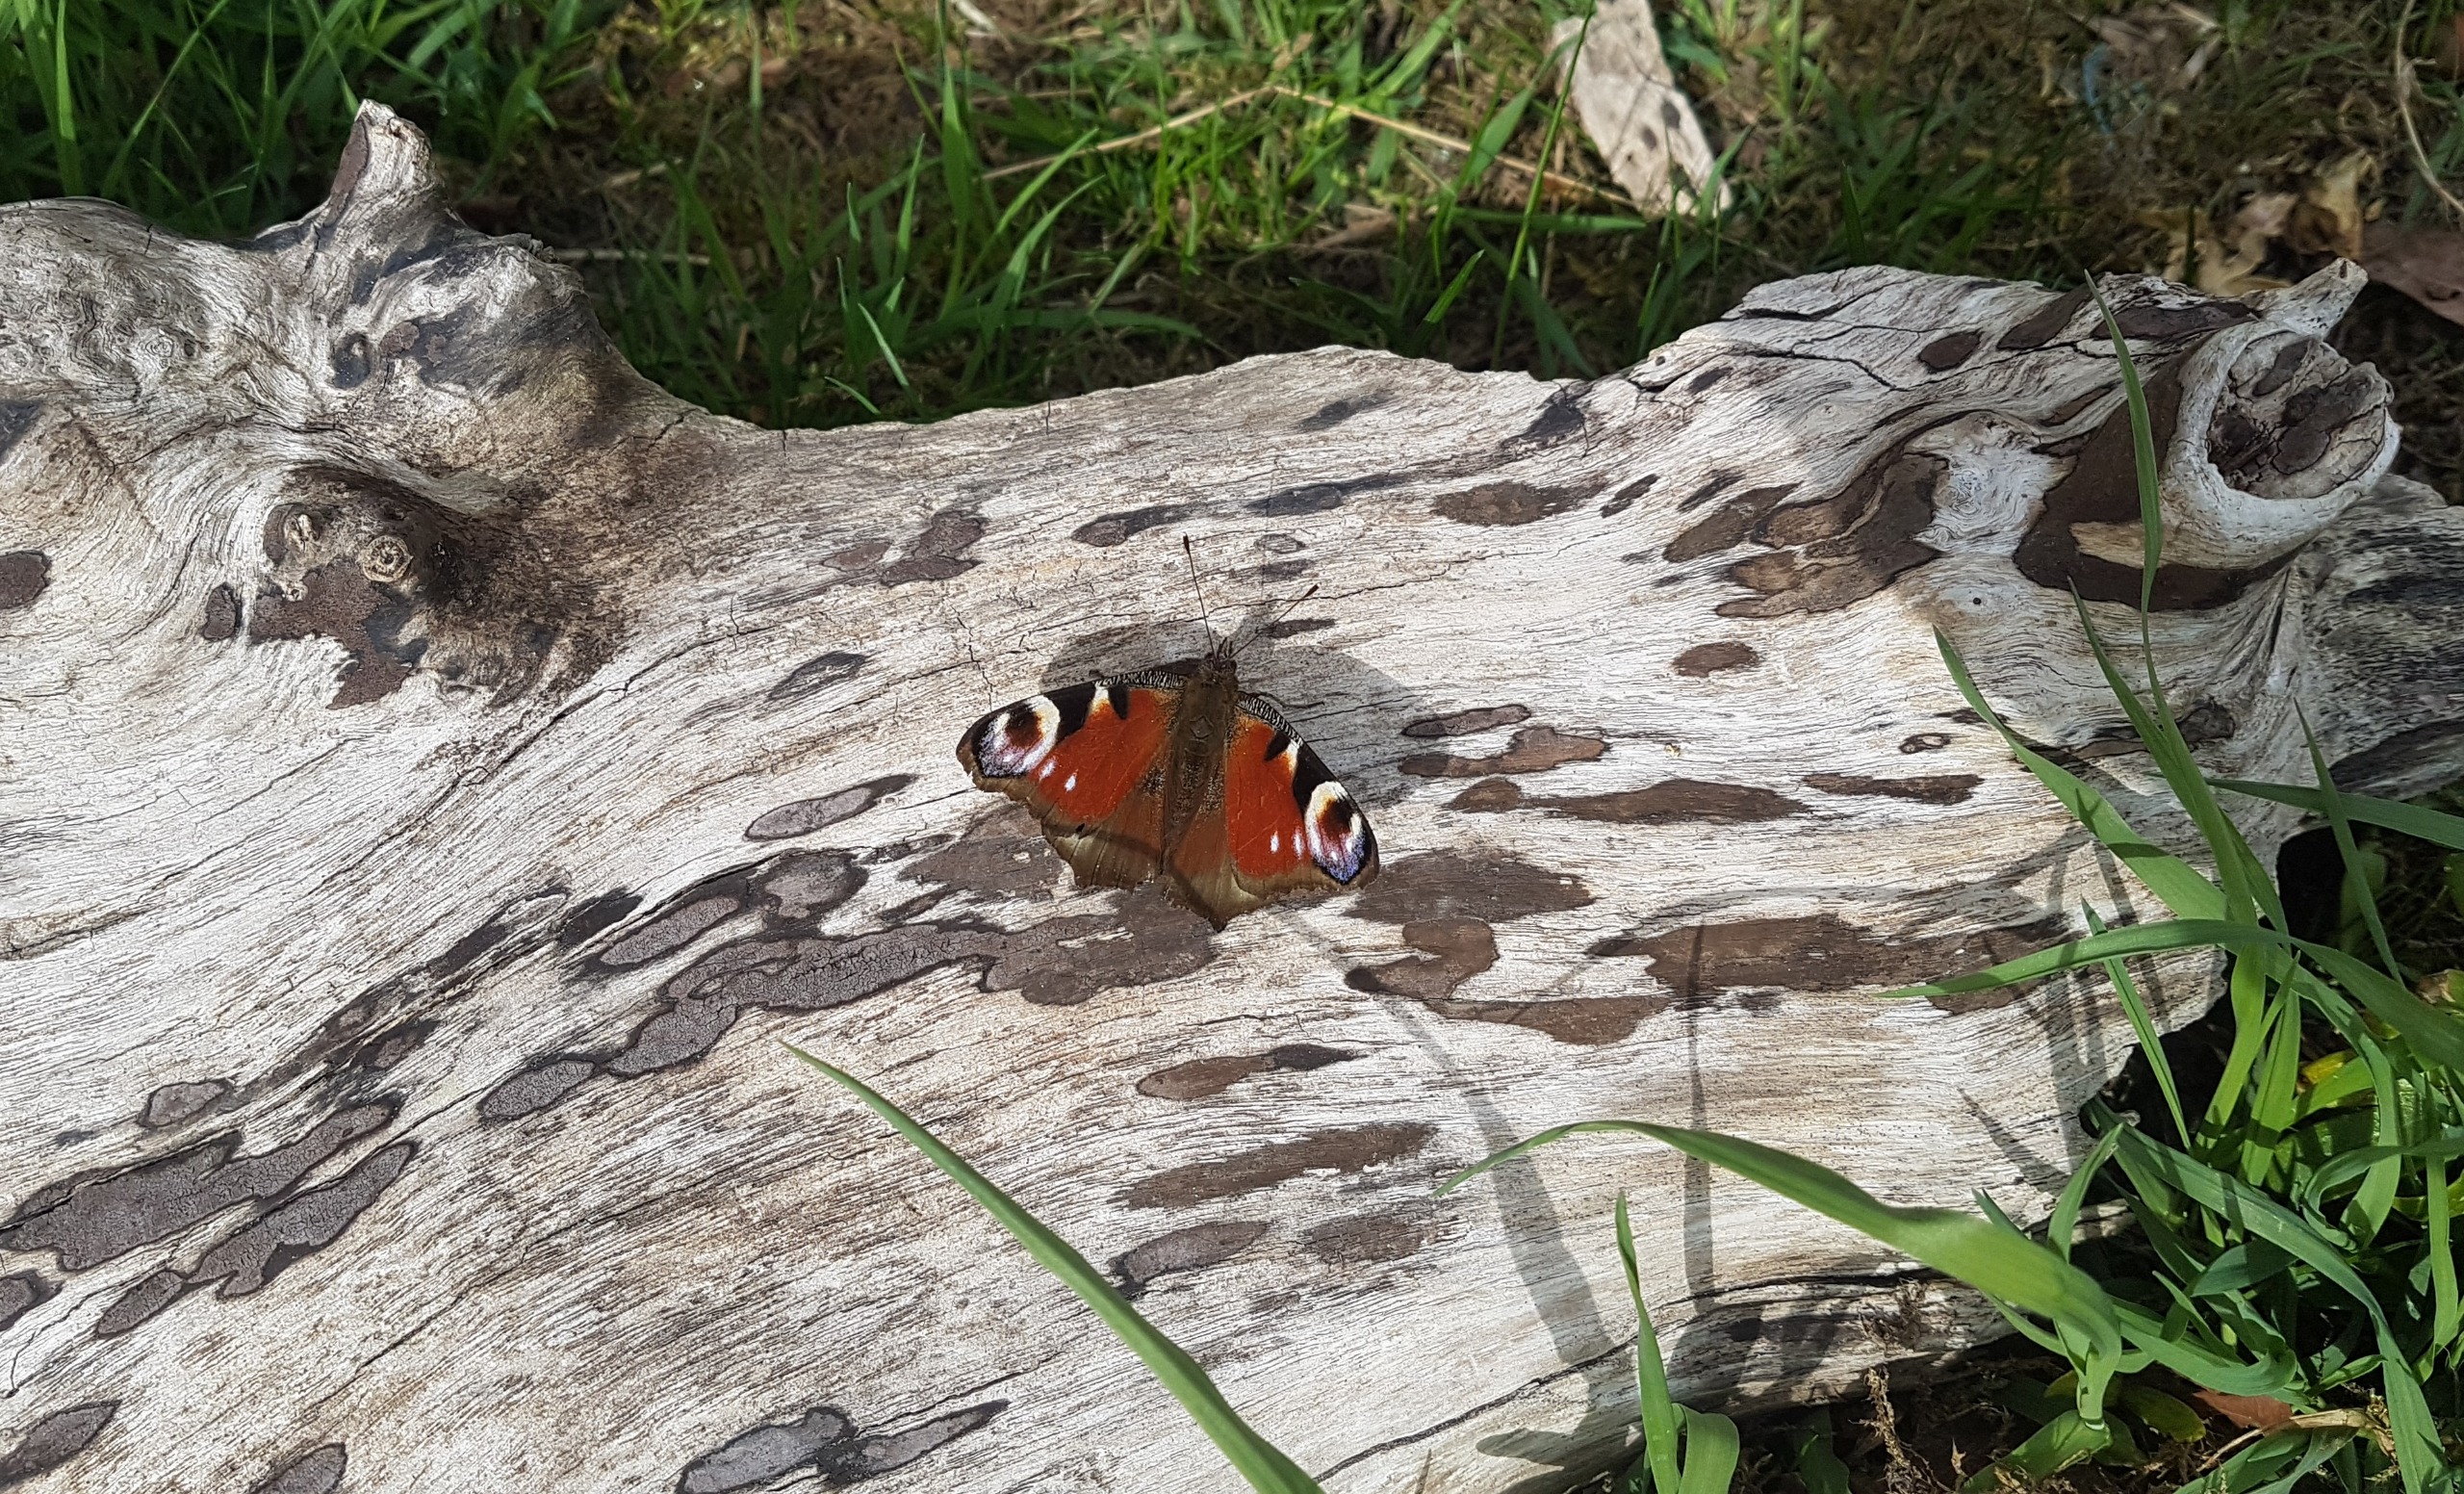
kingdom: Animalia
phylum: Arthropoda
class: Insecta
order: Lepidoptera
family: Nymphalidae
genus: Aglais
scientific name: Aglais io
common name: Dagpåfugleøje
